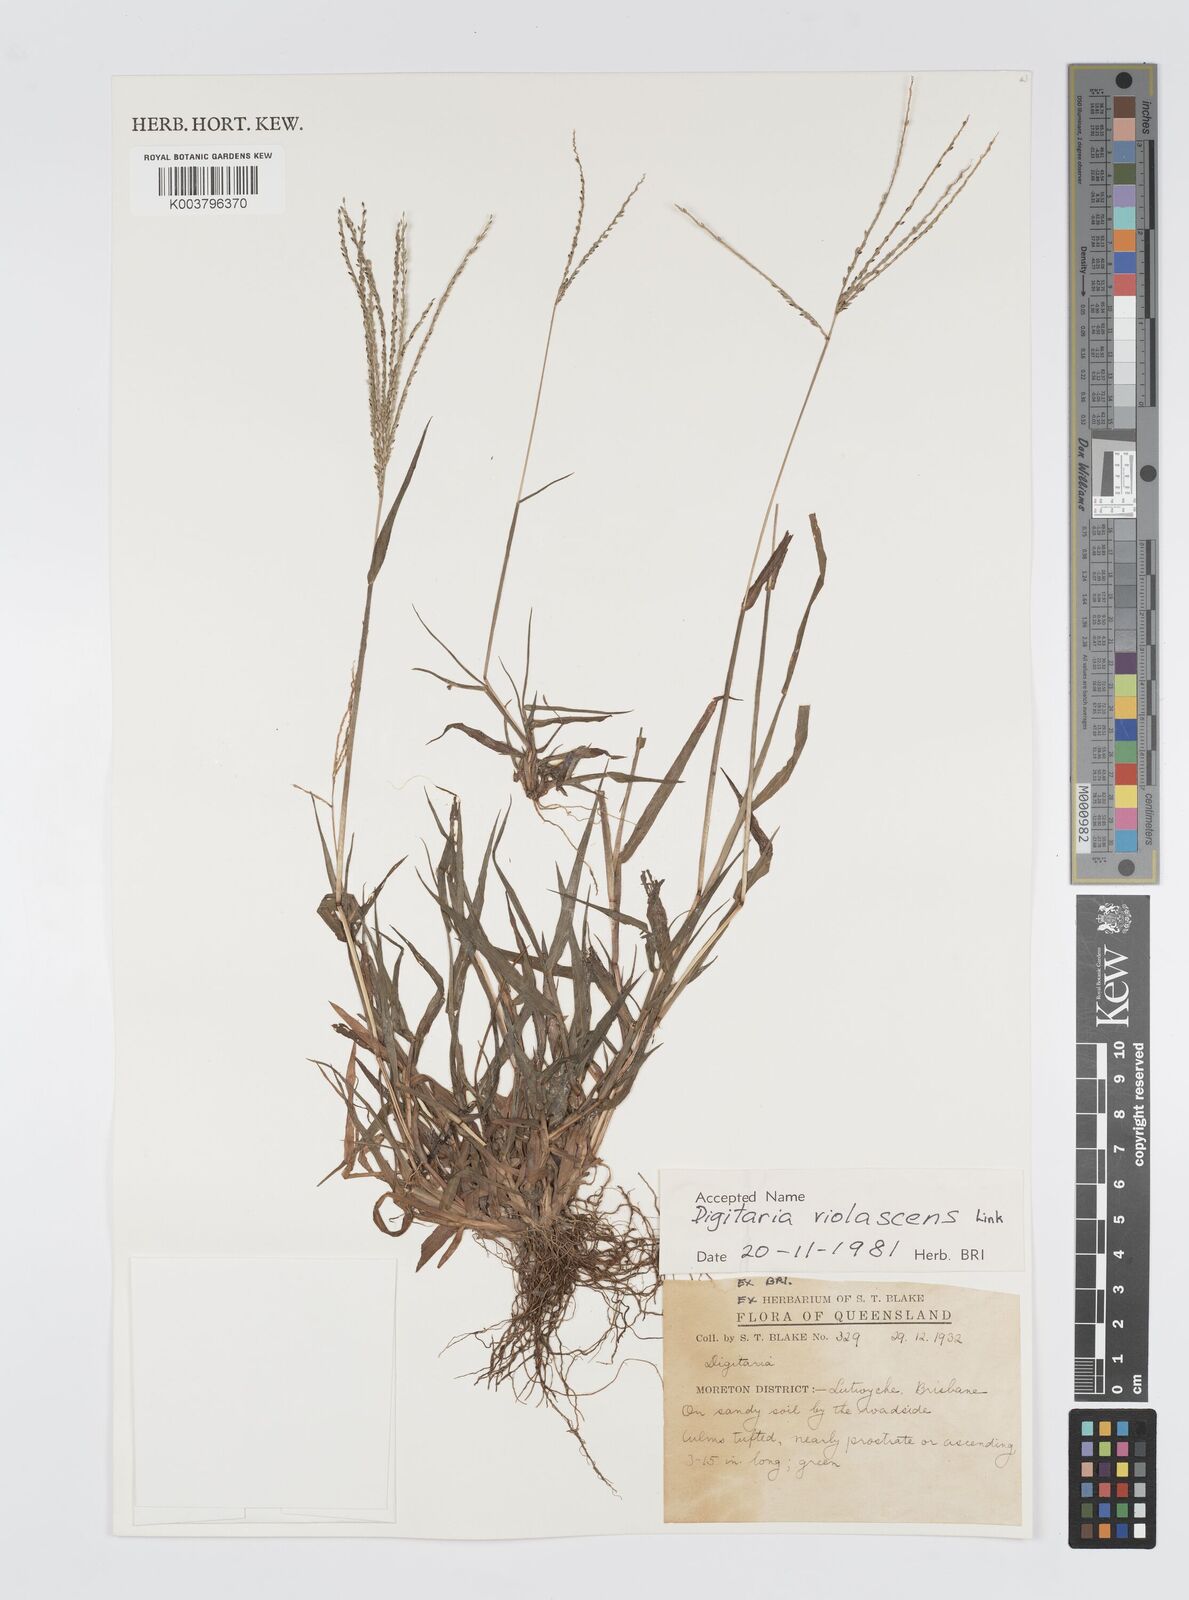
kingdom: Plantae
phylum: Tracheophyta
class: Liliopsida
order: Poales
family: Poaceae
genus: Digitaria
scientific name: Digitaria violascens
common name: Violet crabgrass
